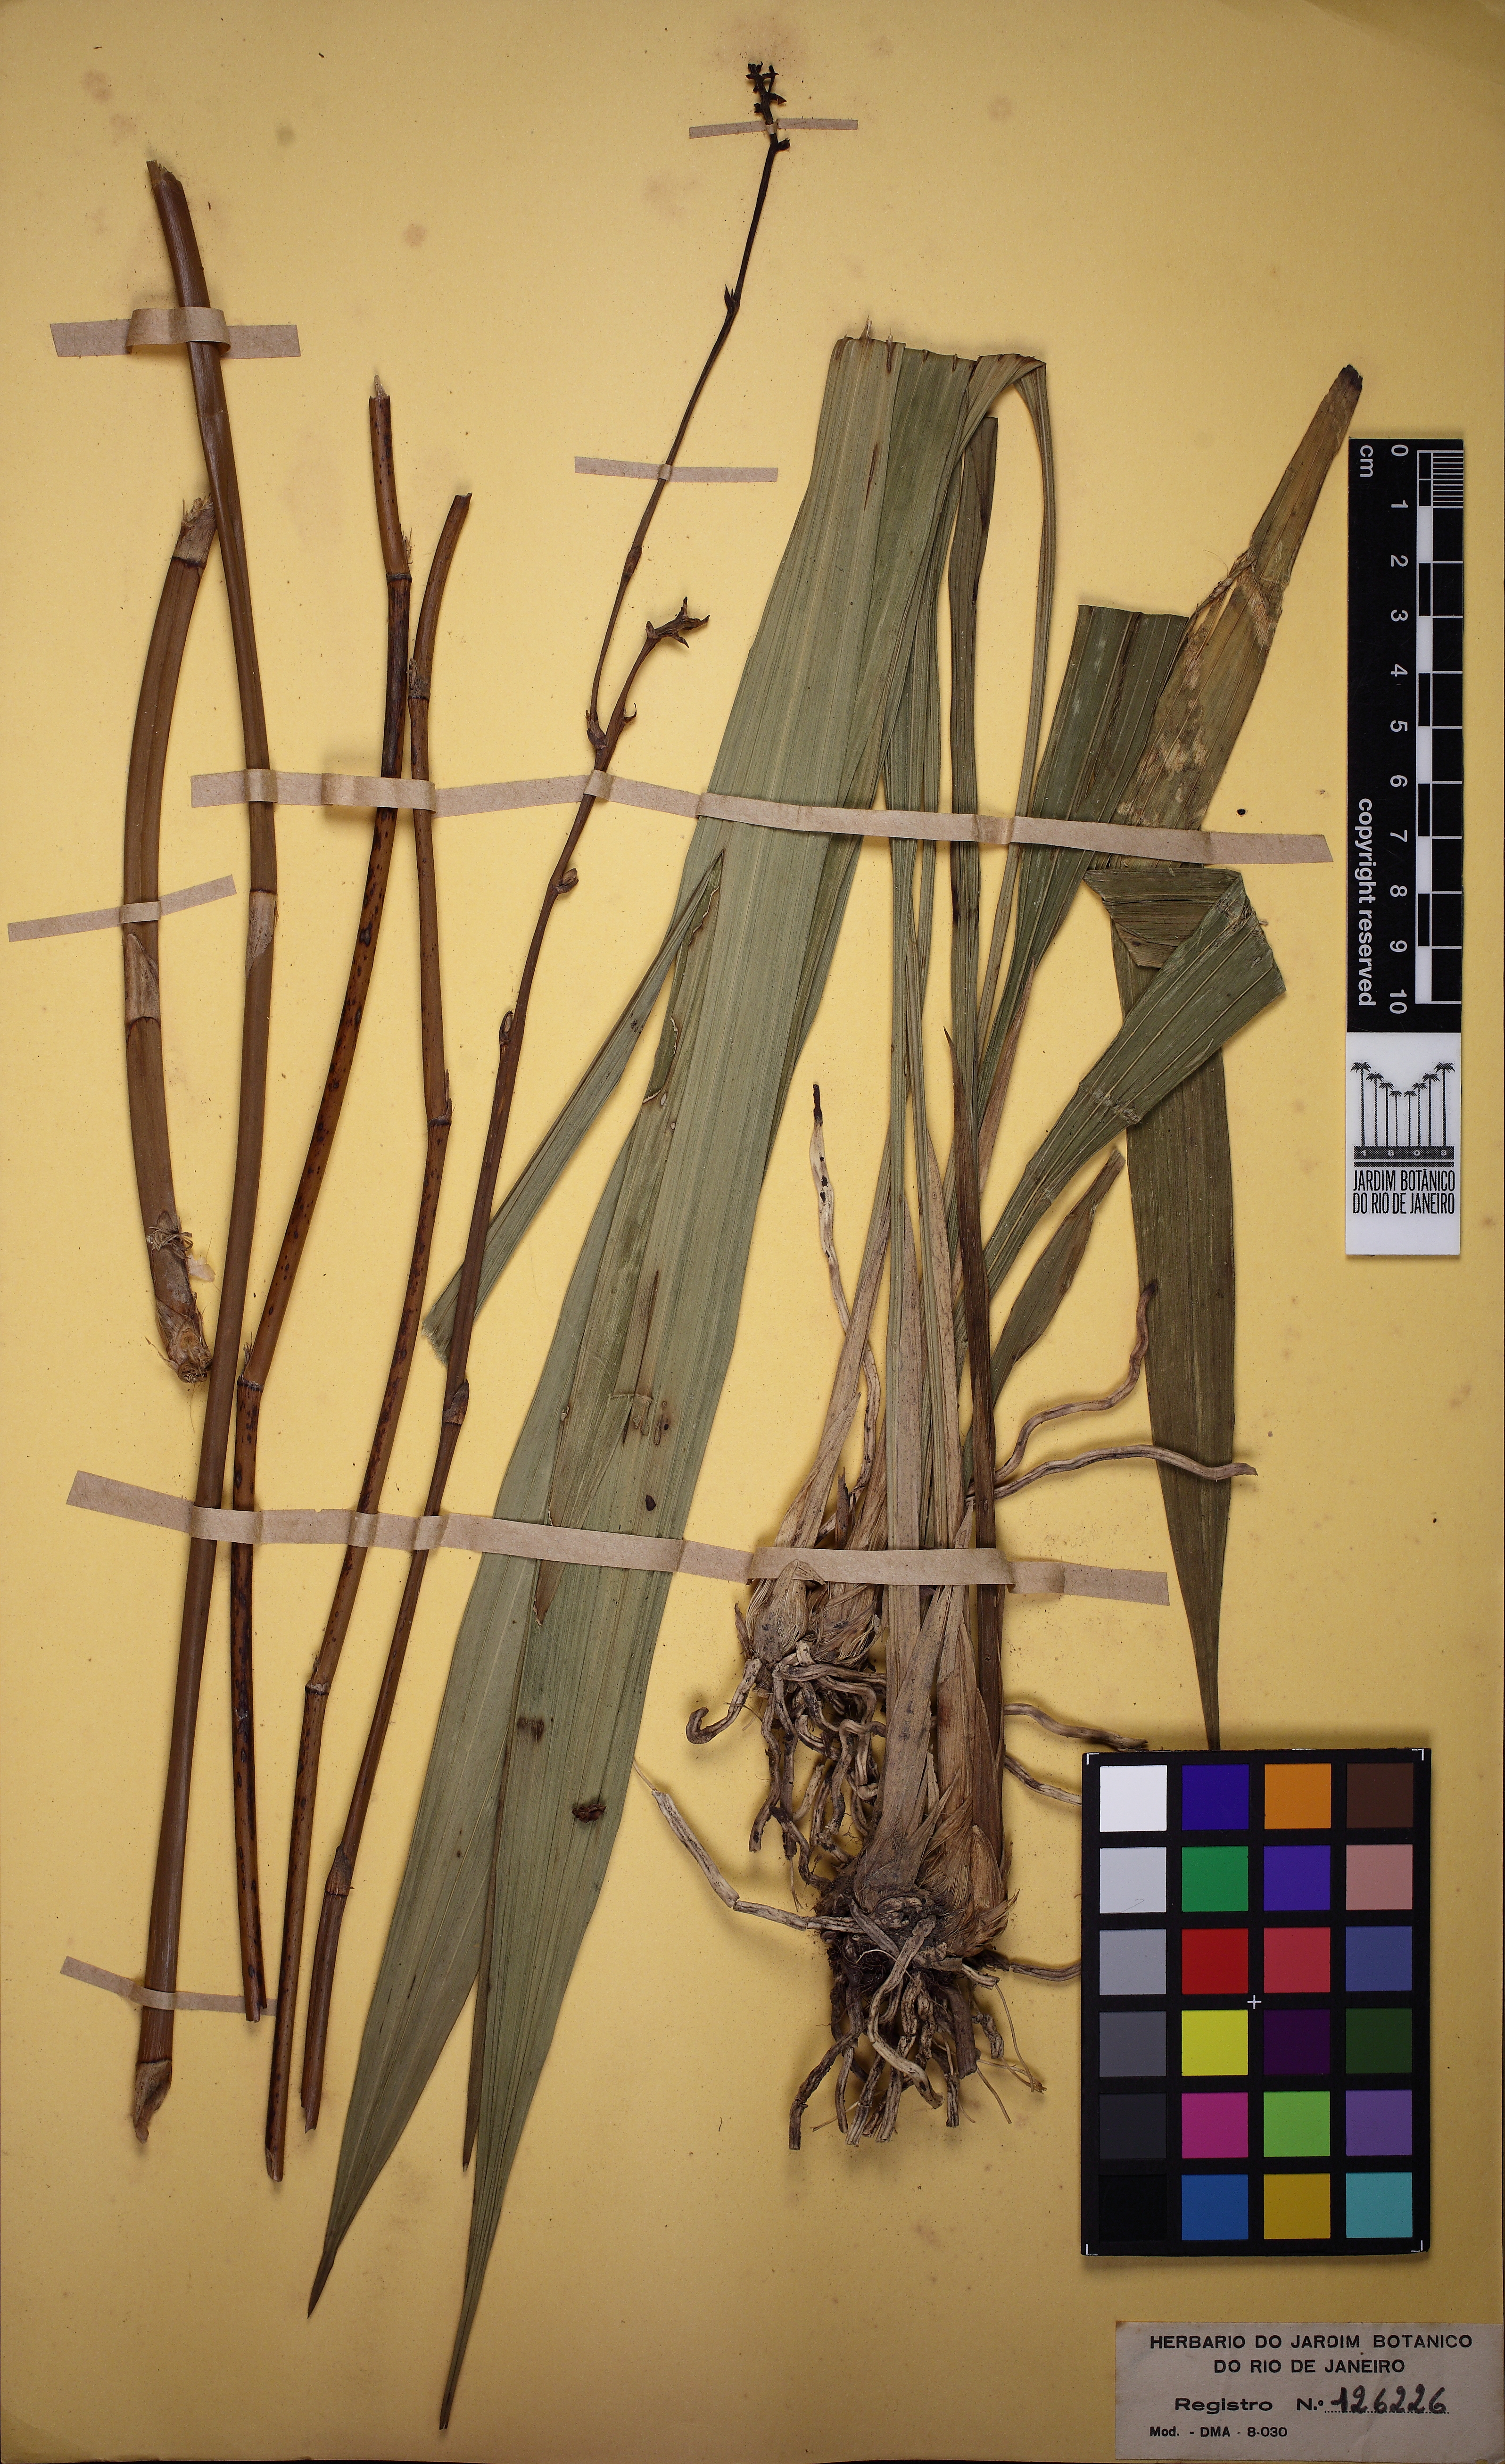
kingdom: Plantae
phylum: Tracheophyta
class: Liliopsida
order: Asparagales
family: Orchidaceae
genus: Koellensteinia
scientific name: Koellensteinia florida
